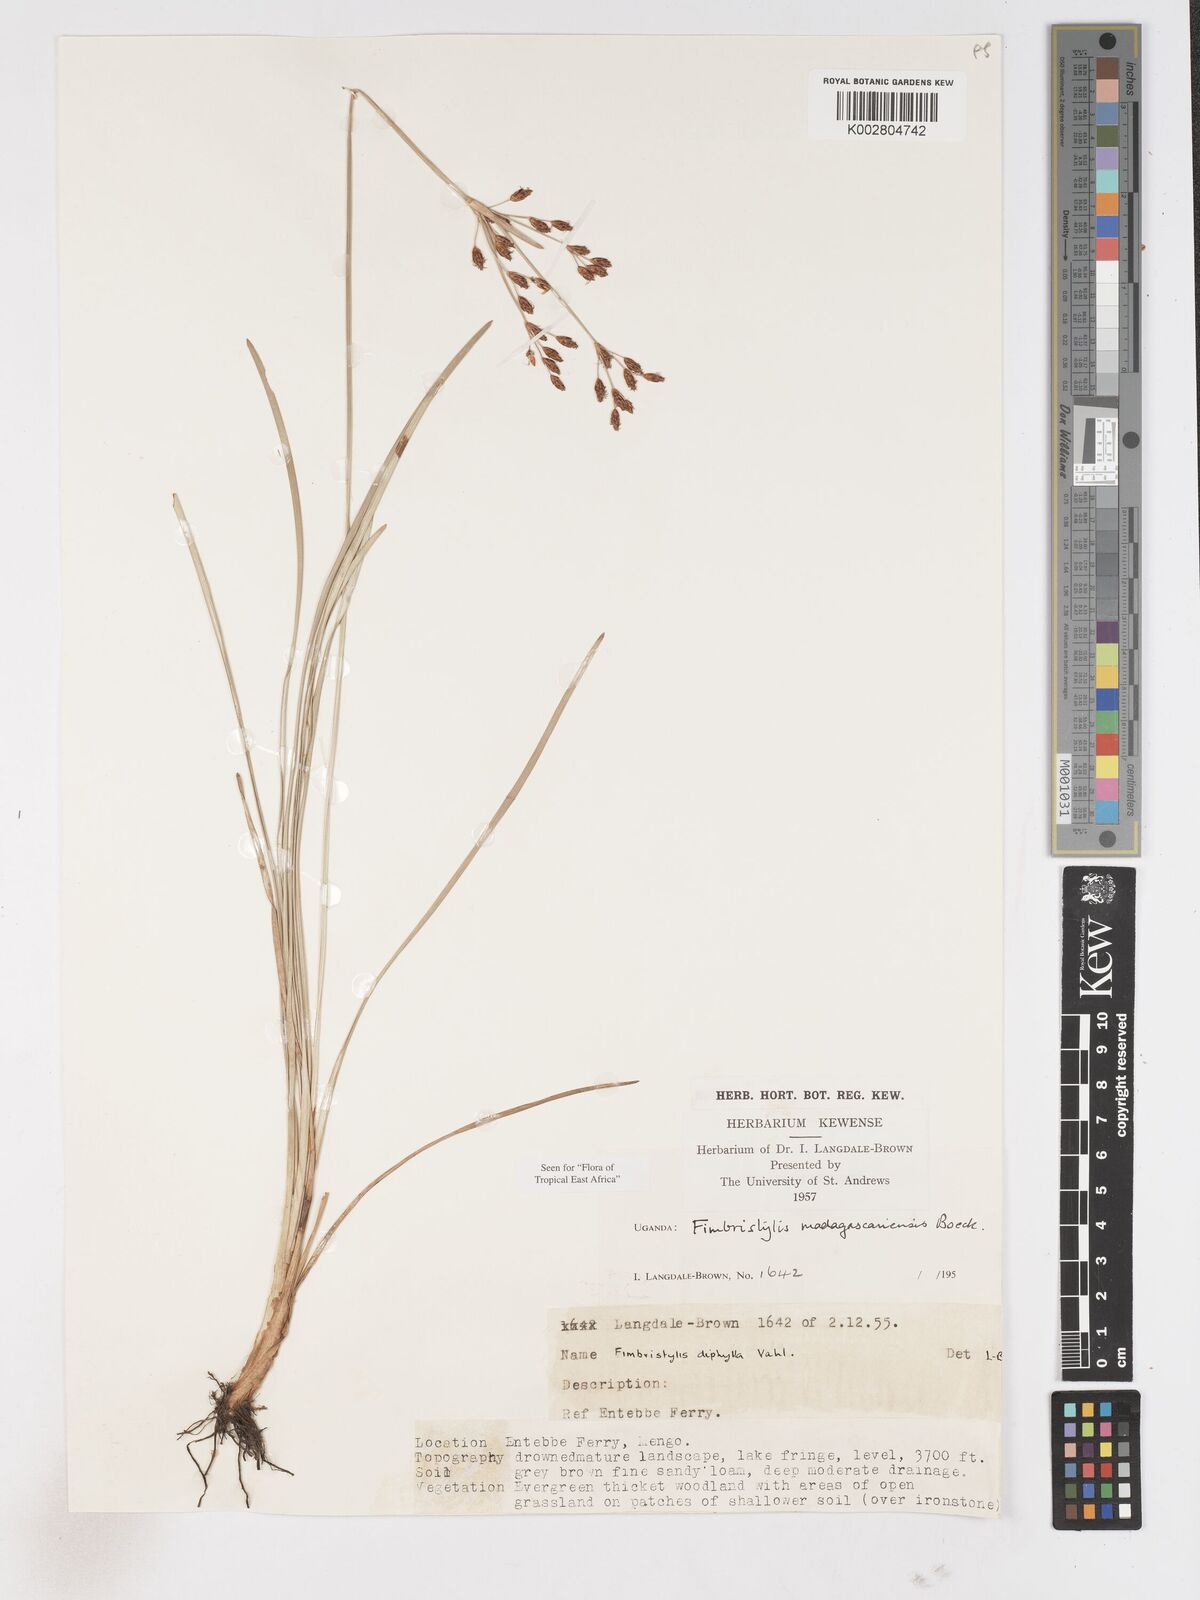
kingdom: Plantae
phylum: Tracheophyta
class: Liliopsida
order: Poales
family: Cyperaceae
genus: Fimbristylis
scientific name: Fimbristylis madagascariensis
